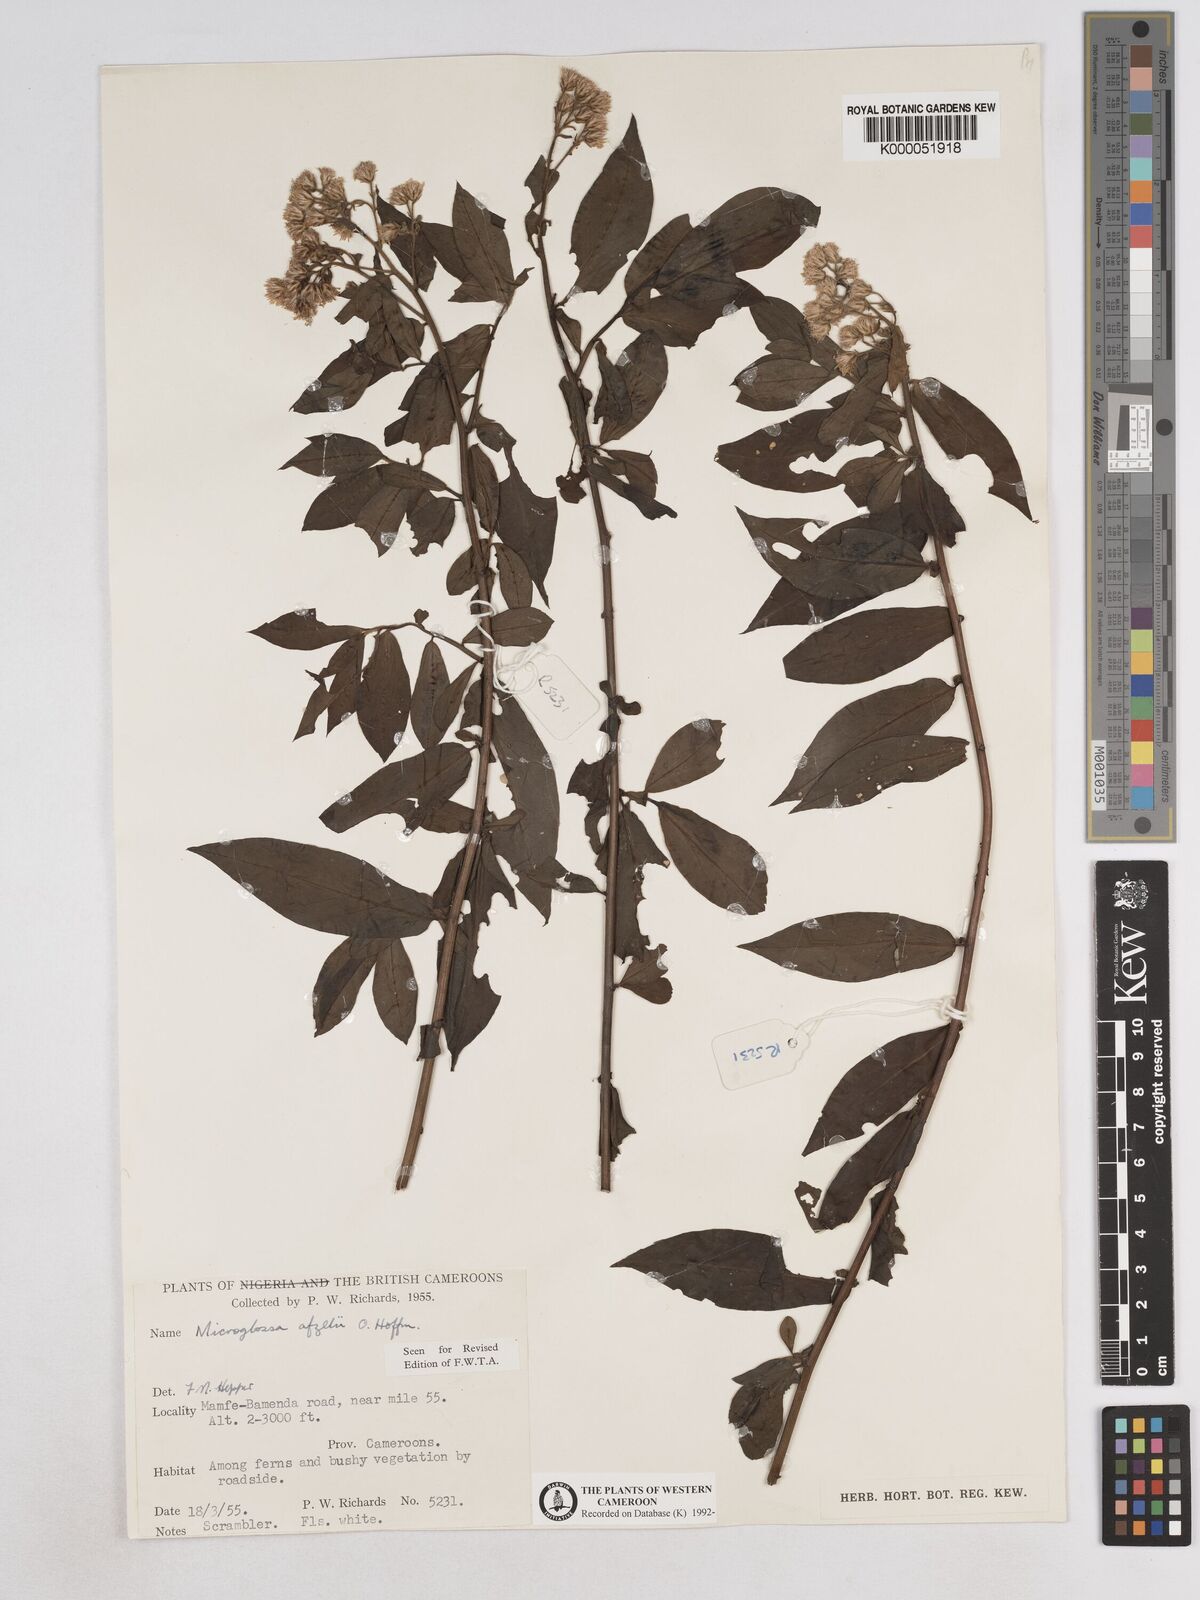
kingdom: Plantae
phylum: Tracheophyta
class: Magnoliopsida
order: Asterales
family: Asteraceae
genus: Microglossa
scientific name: Microglossa afzelii
